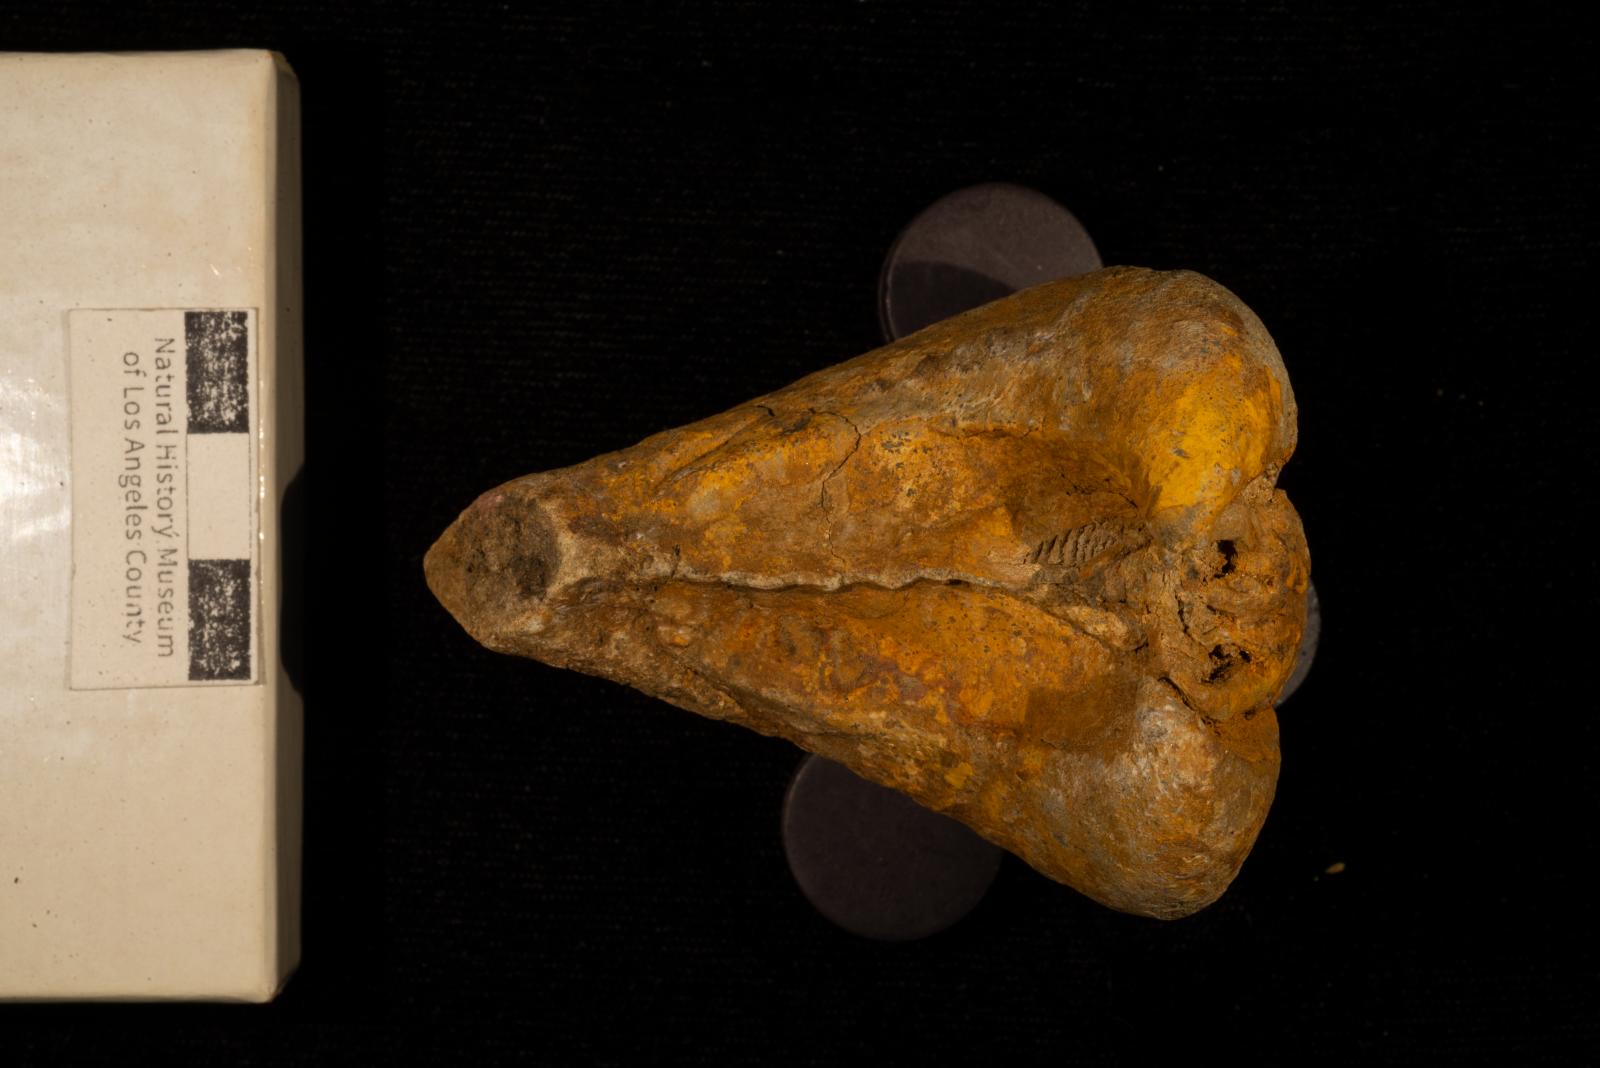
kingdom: Animalia
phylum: Mollusca
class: Bivalvia
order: Trigoniida
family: Pterotrigoniidae
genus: Notoscabrotrigonia
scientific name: Notoscabrotrigonia evansana
